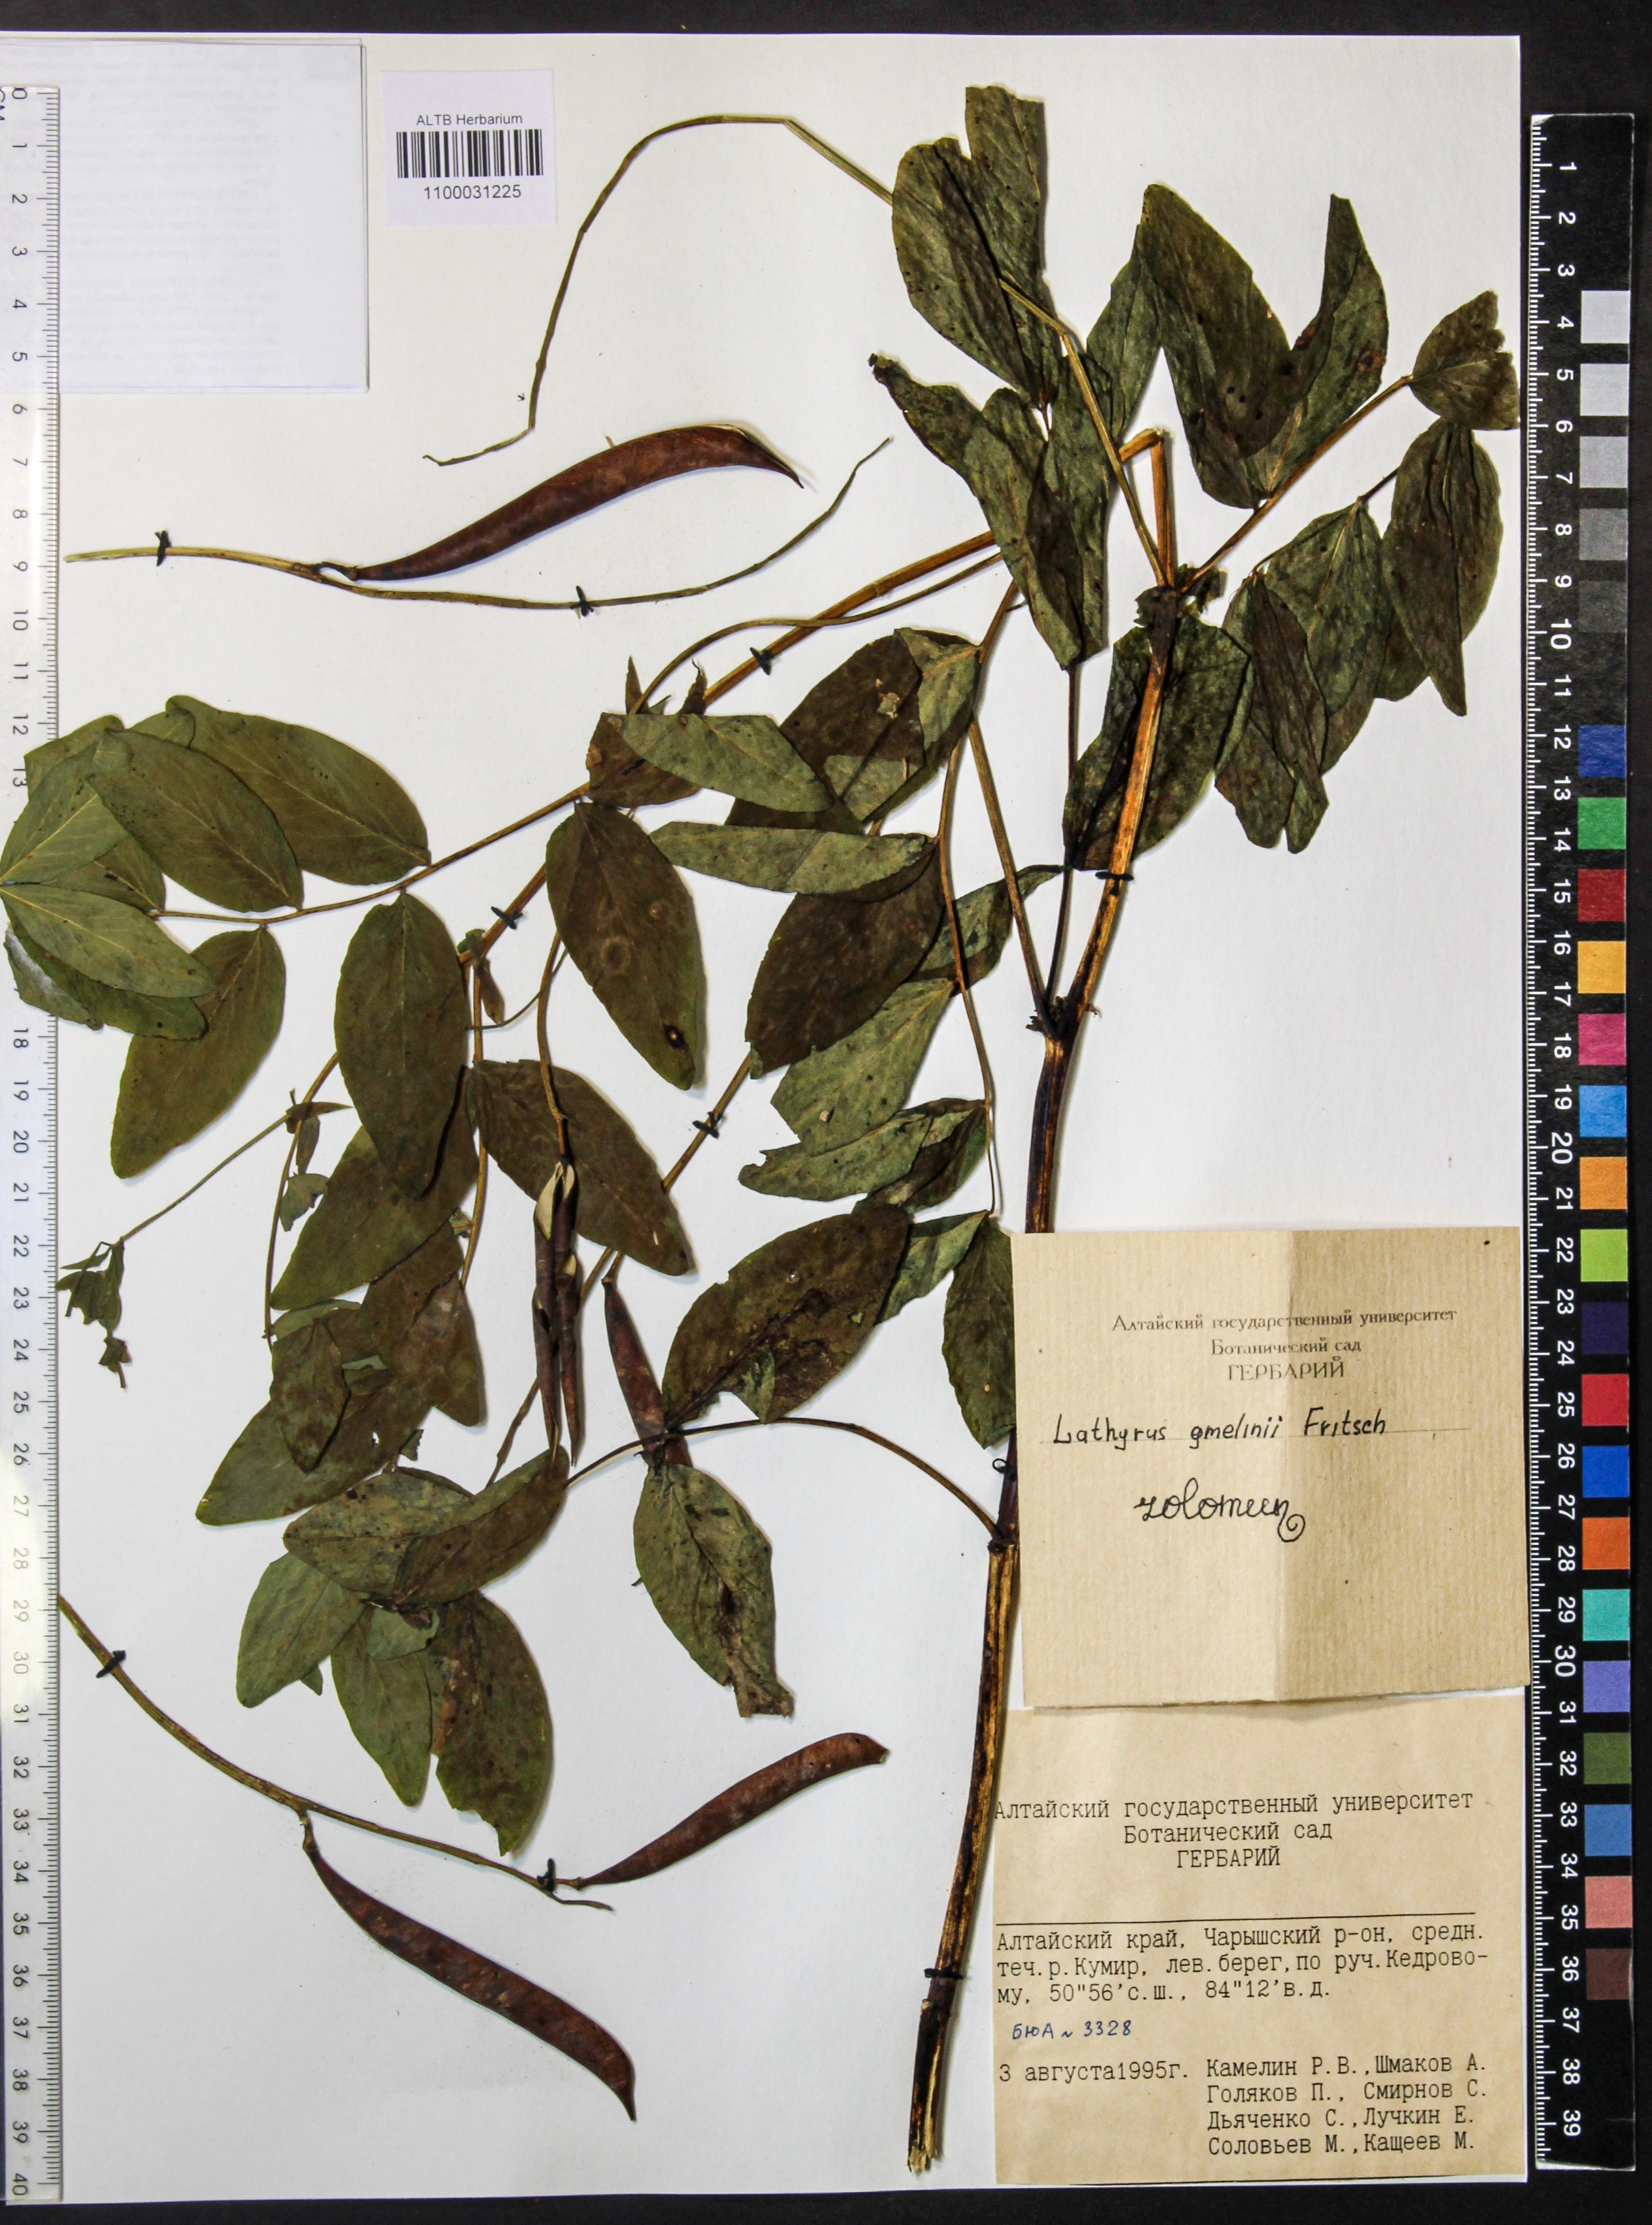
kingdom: Plantae
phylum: Tracheophyta
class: Magnoliopsida
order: Fabales
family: Fabaceae
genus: Lathyrus
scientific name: Lathyrus gmelinii
